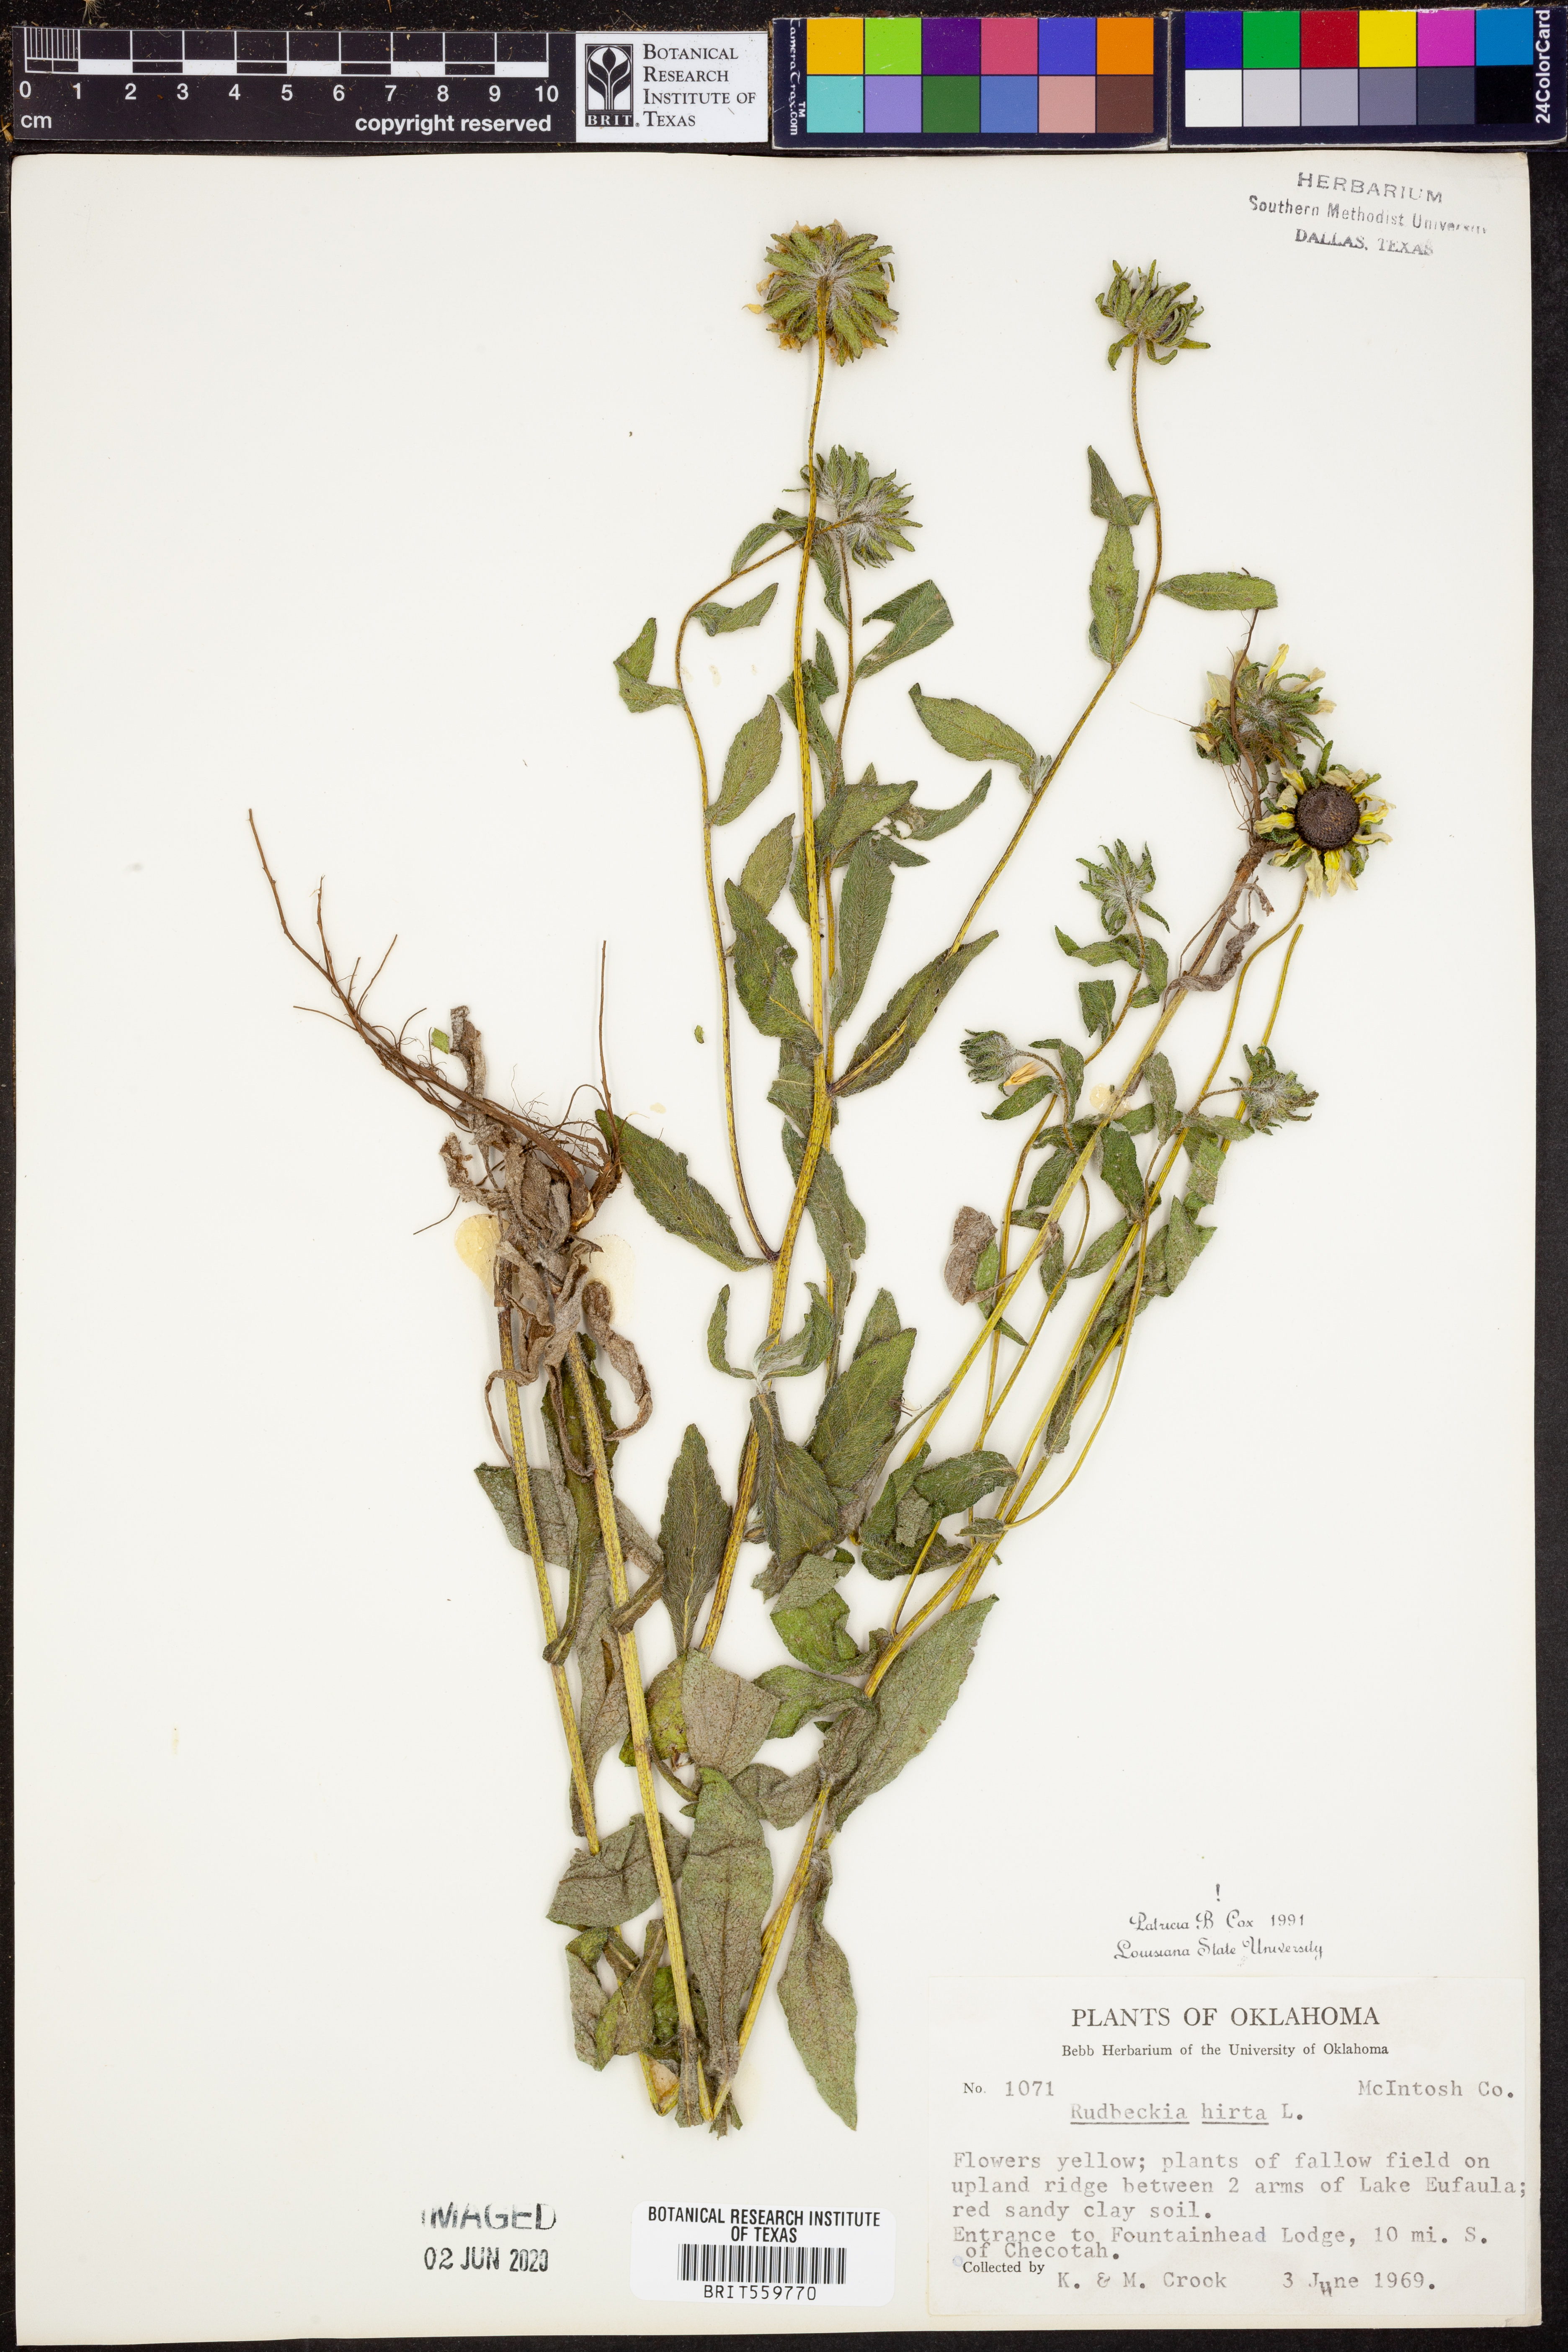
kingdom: Plantae
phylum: Tracheophyta
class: Magnoliopsida
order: Asterales
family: Asteraceae
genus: Rudbeckia
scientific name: Rudbeckia hirta
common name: Black-eyed-susan
